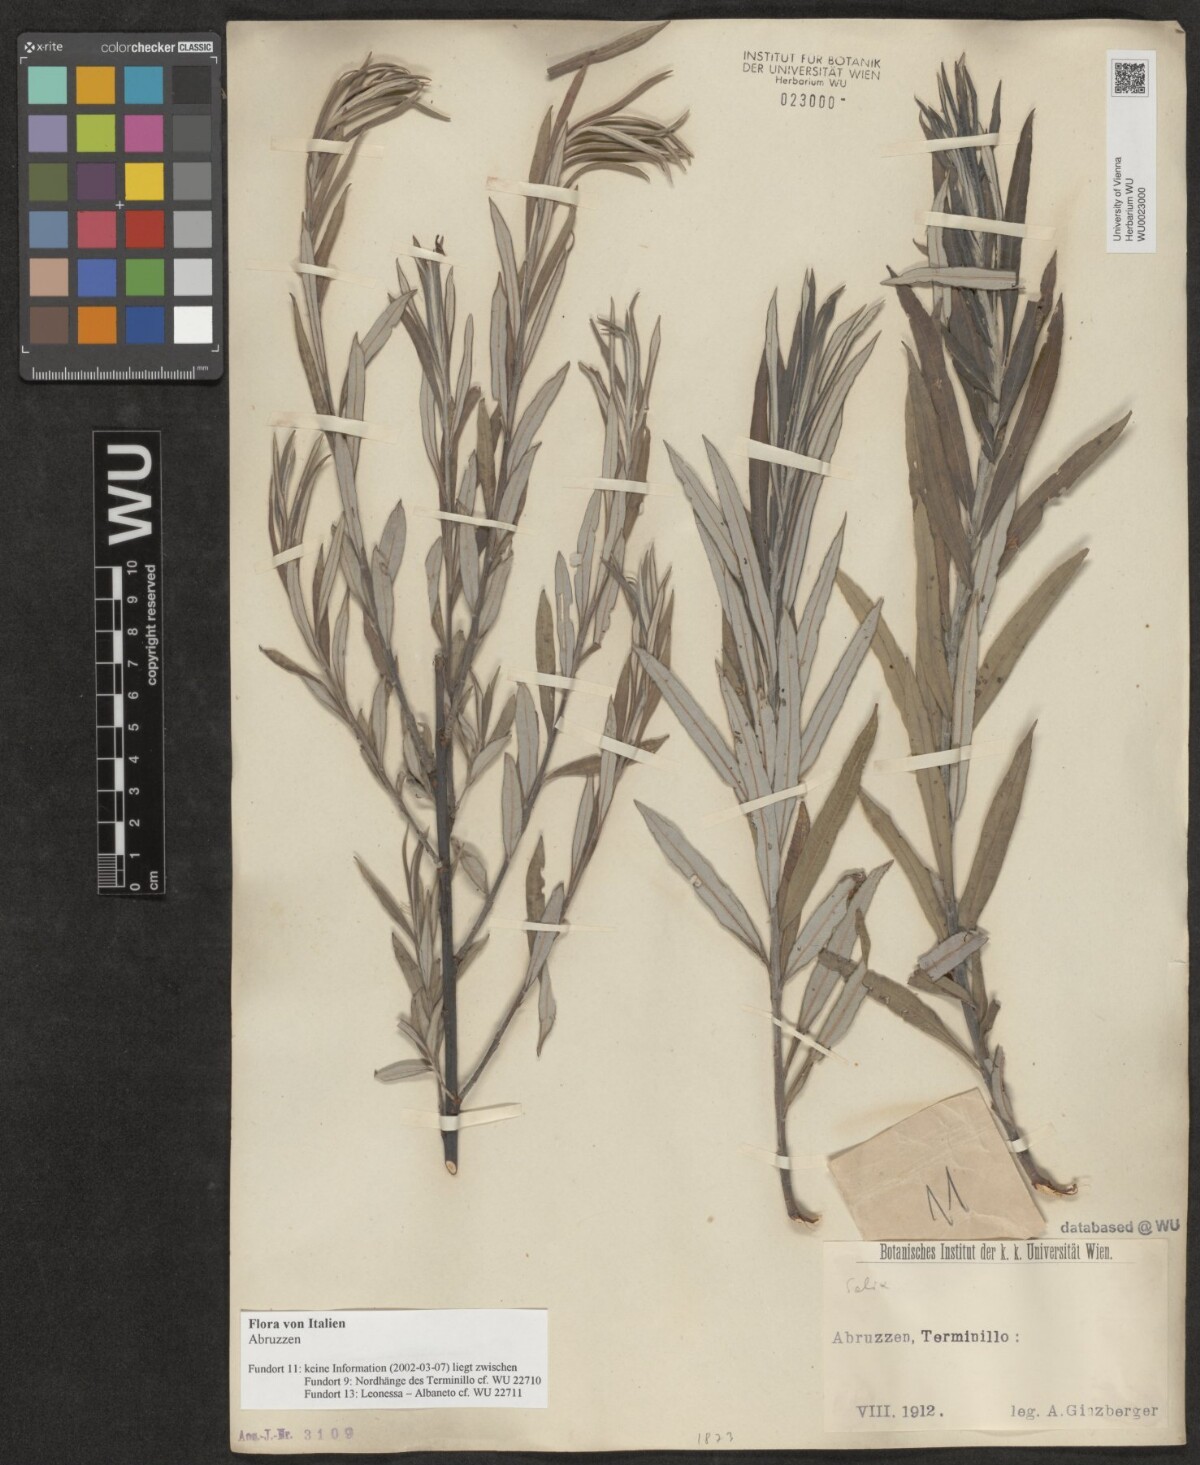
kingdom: Plantae
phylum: Tracheophyta
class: Magnoliopsida
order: Malpighiales
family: Salicaceae
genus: Salix
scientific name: Salix
